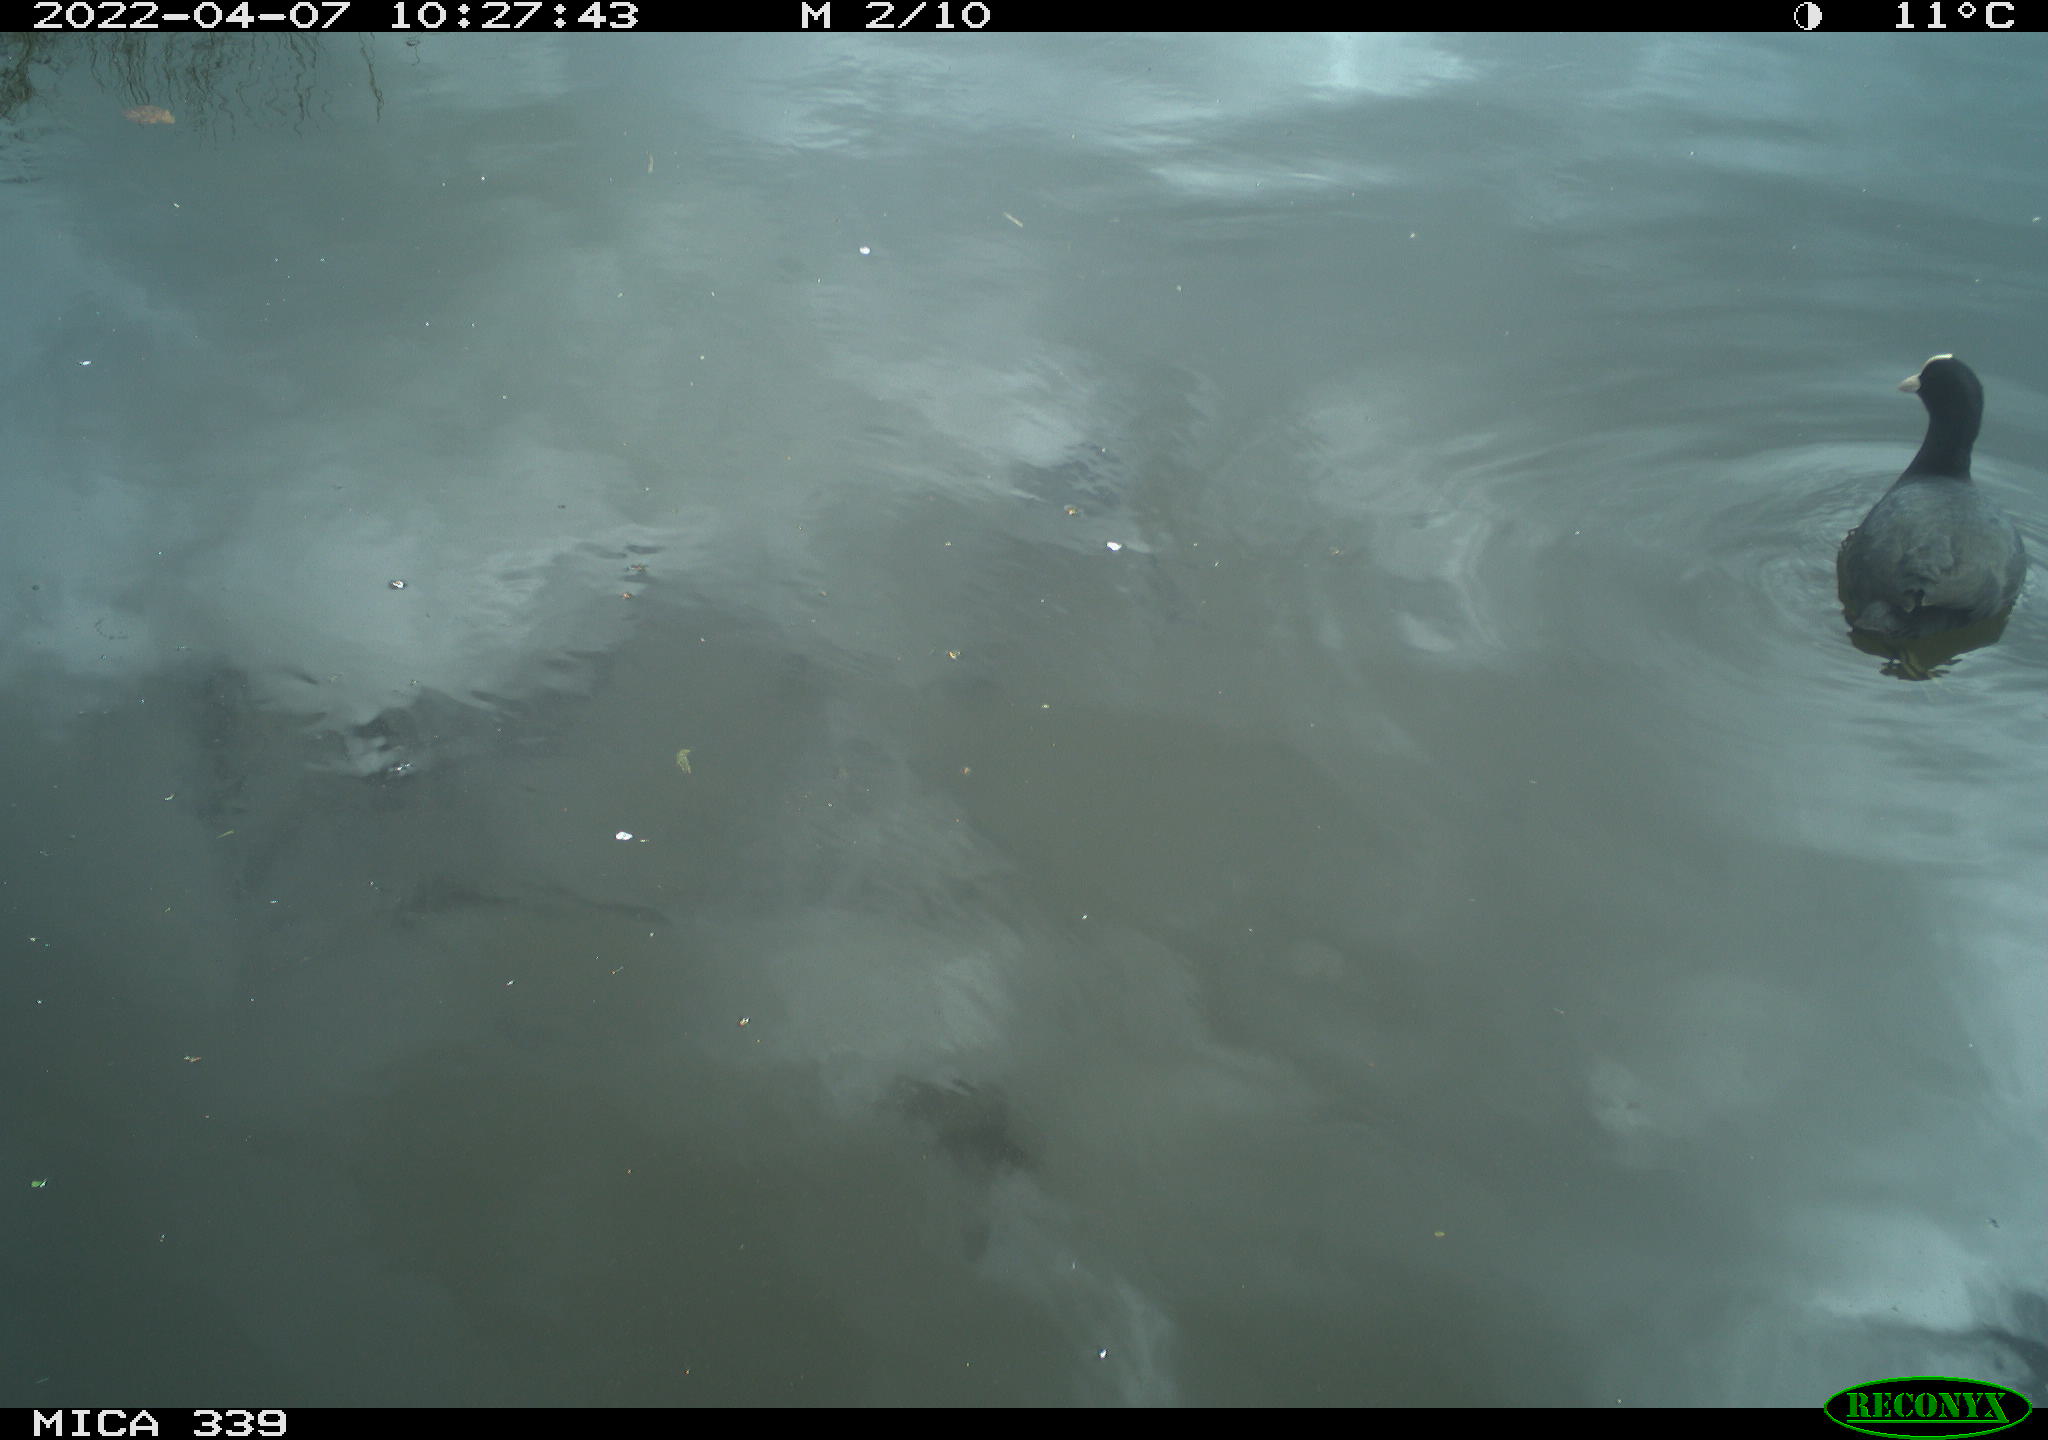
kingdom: Animalia
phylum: Chordata
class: Aves
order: Gruiformes
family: Rallidae
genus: Fulica
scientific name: Fulica atra
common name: Eurasian coot
